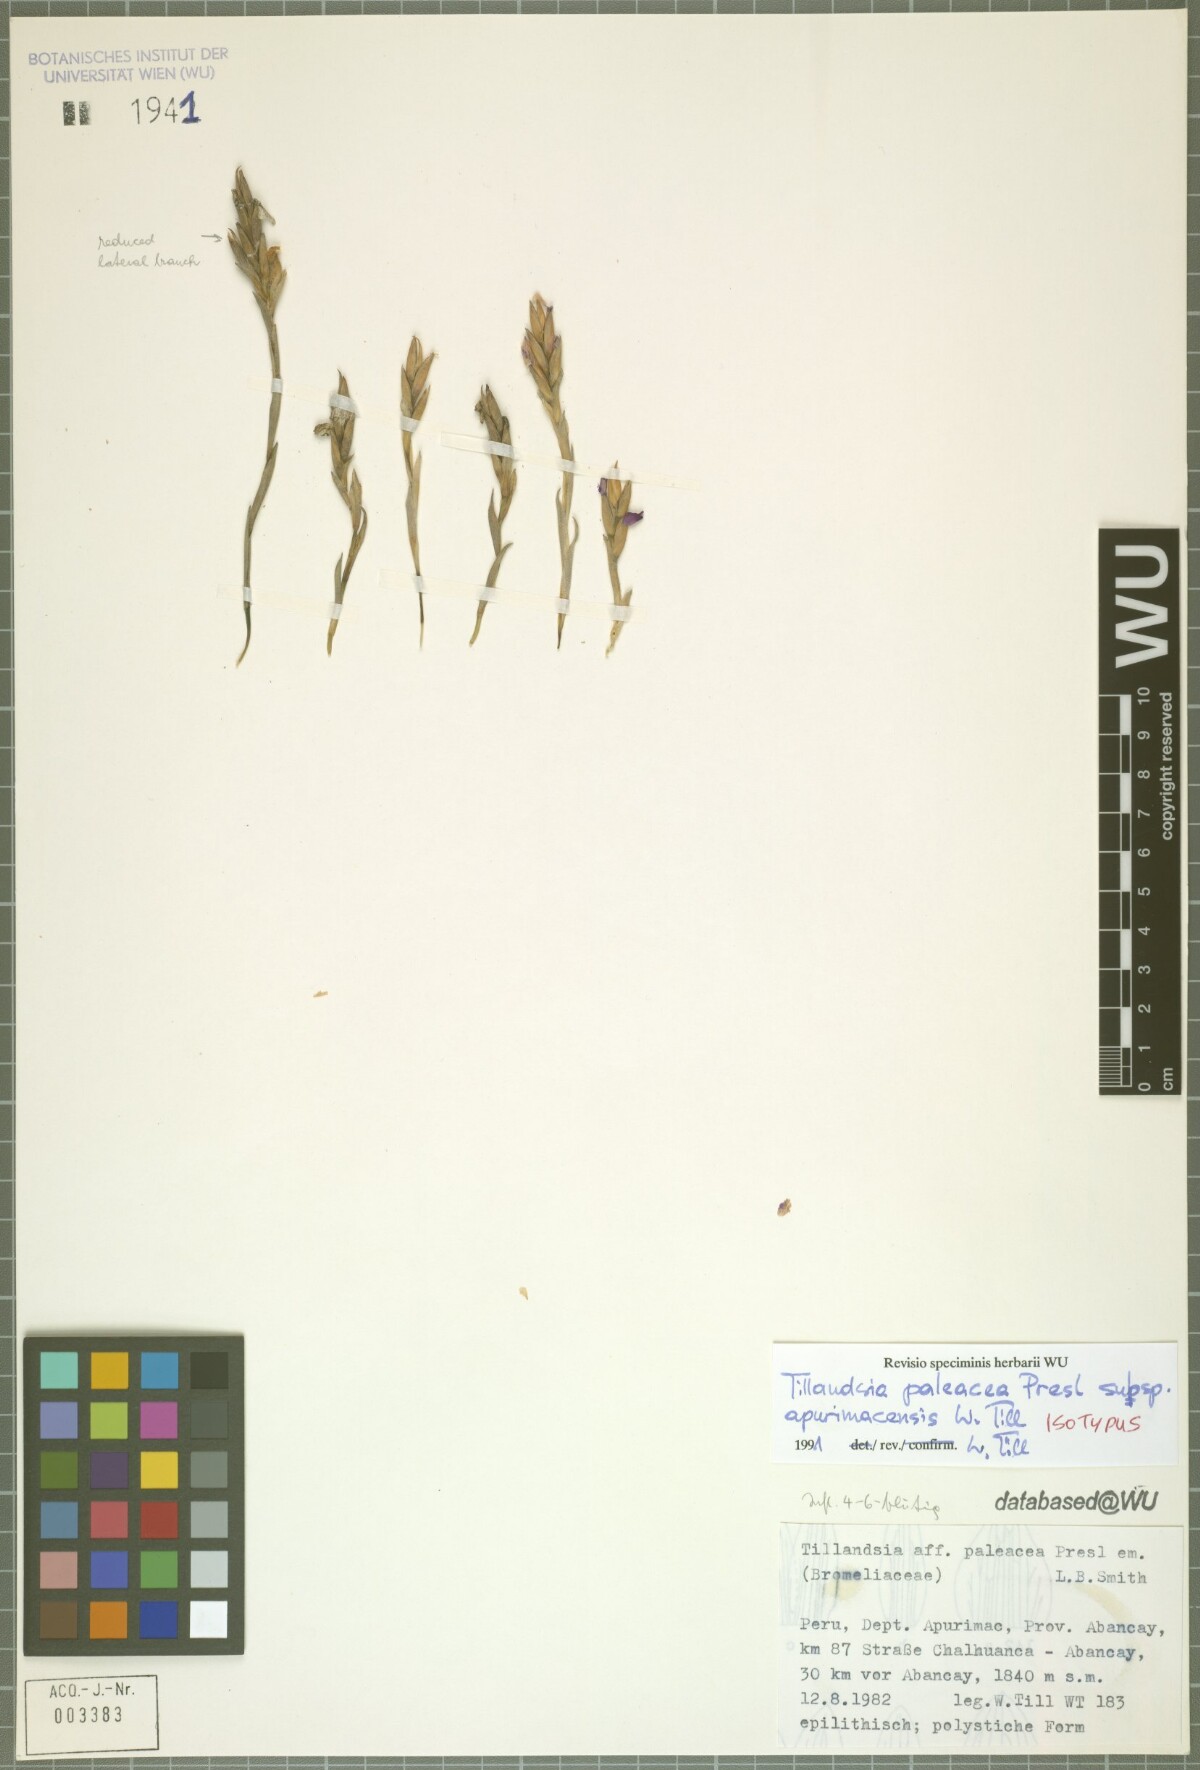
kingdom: Plantae
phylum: Tracheophyta
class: Liliopsida
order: Poales
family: Bromeliaceae
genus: Tillandsia
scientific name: Tillandsia paleacea
